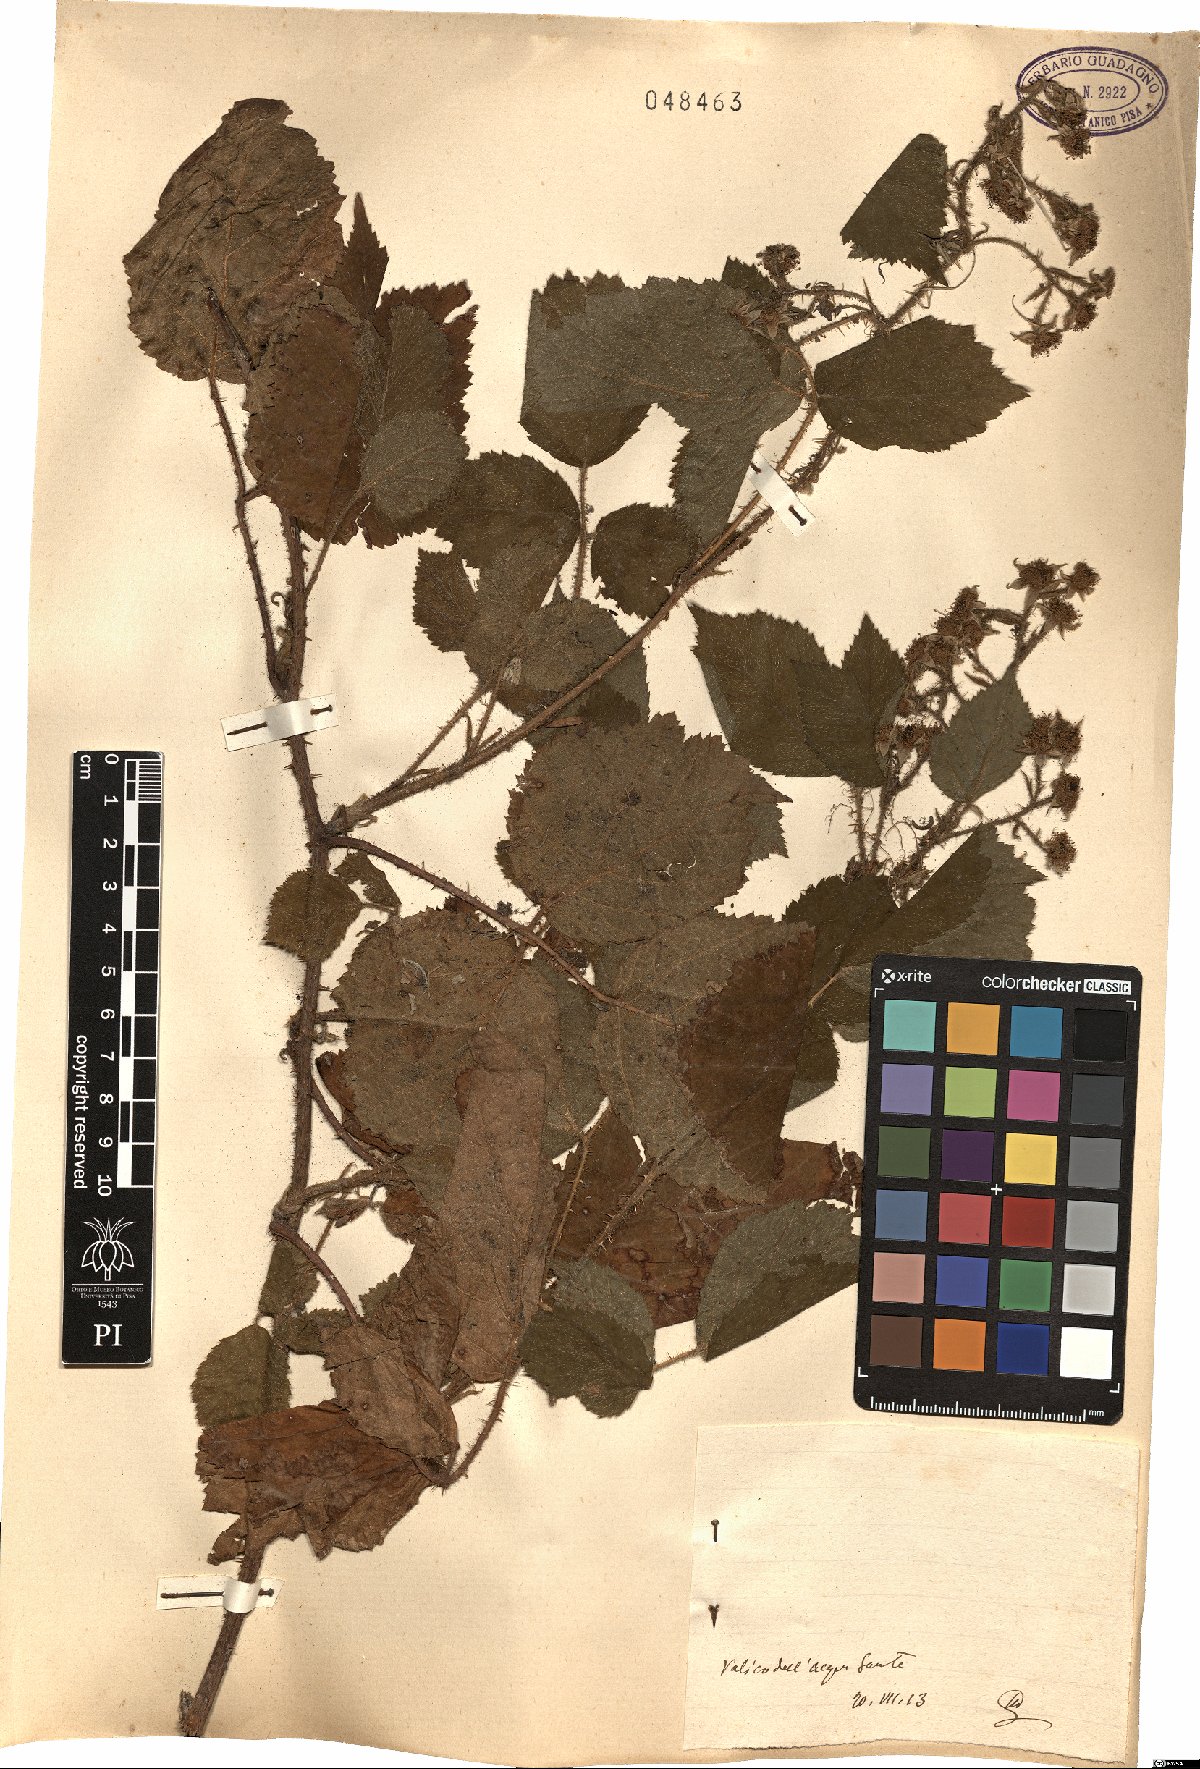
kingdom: Plantae
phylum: Tracheophyta
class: Magnoliopsida
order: Rosales
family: Rosaceae
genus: Rubus
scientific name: Rubus
